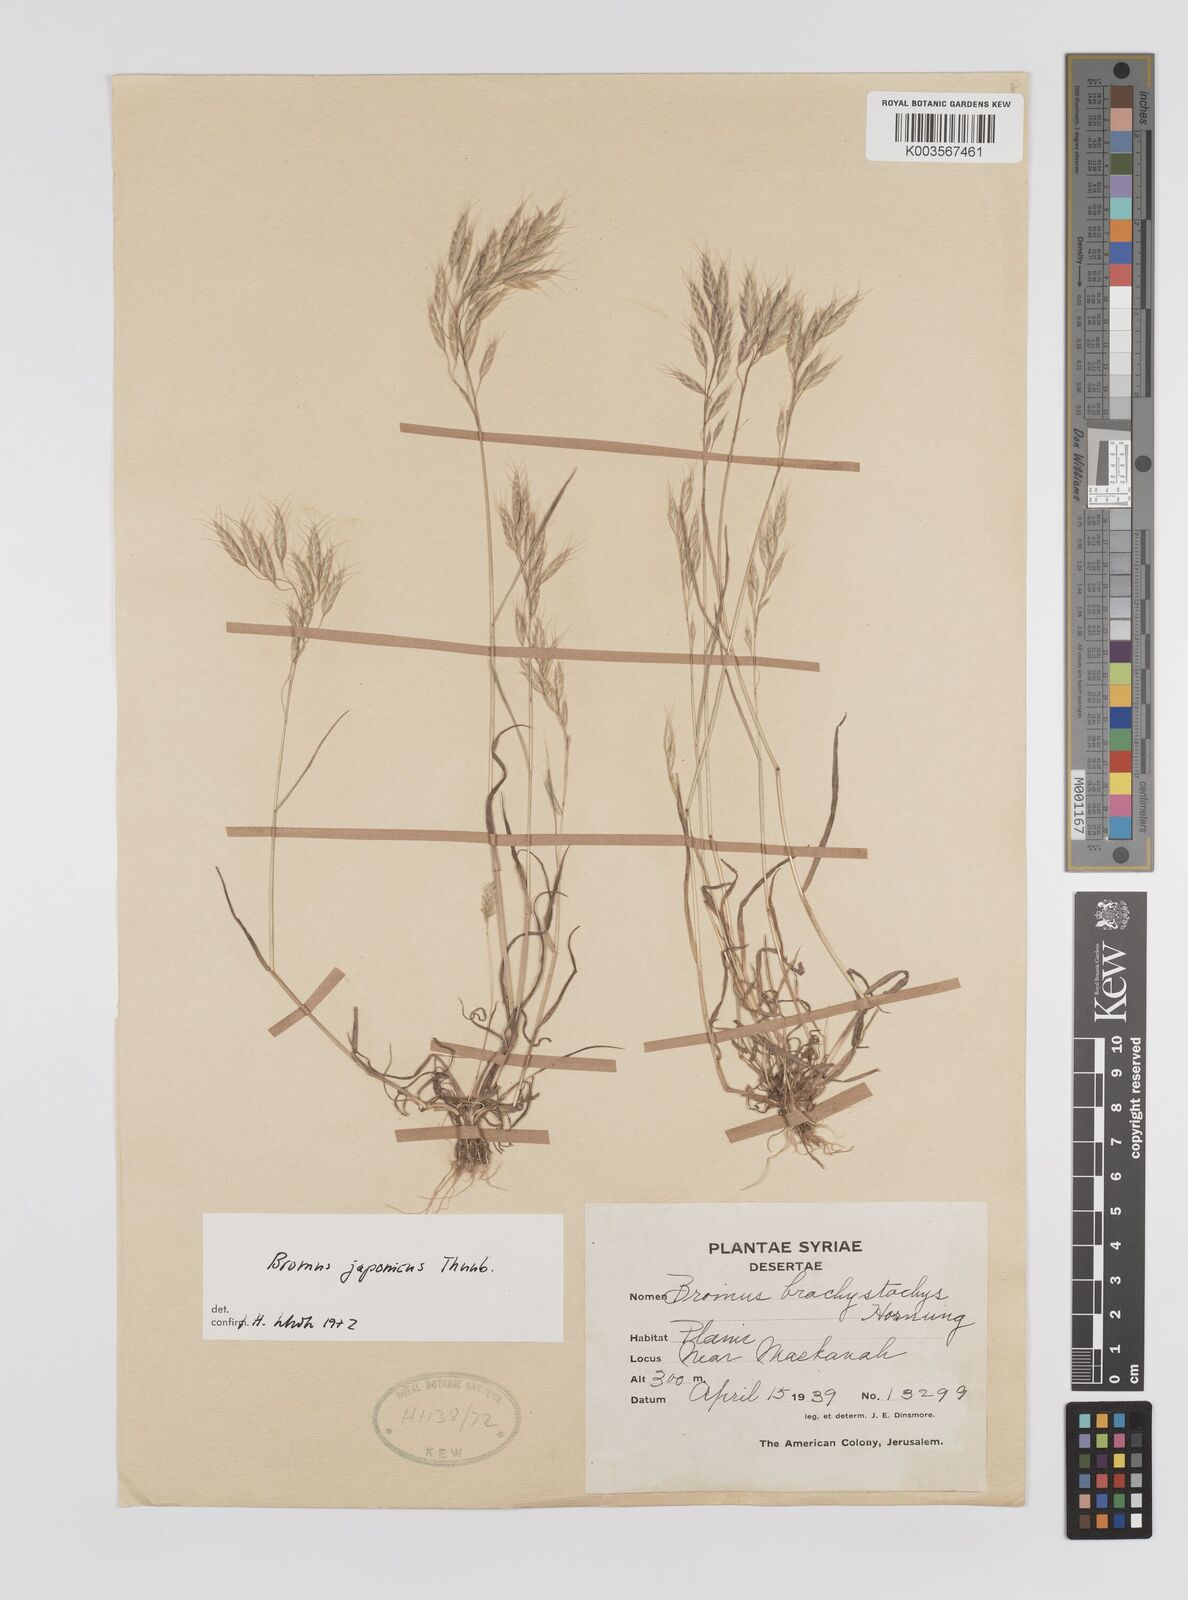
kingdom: Plantae
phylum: Tracheophyta
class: Liliopsida
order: Poales
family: Poaceae
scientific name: Poaceae
